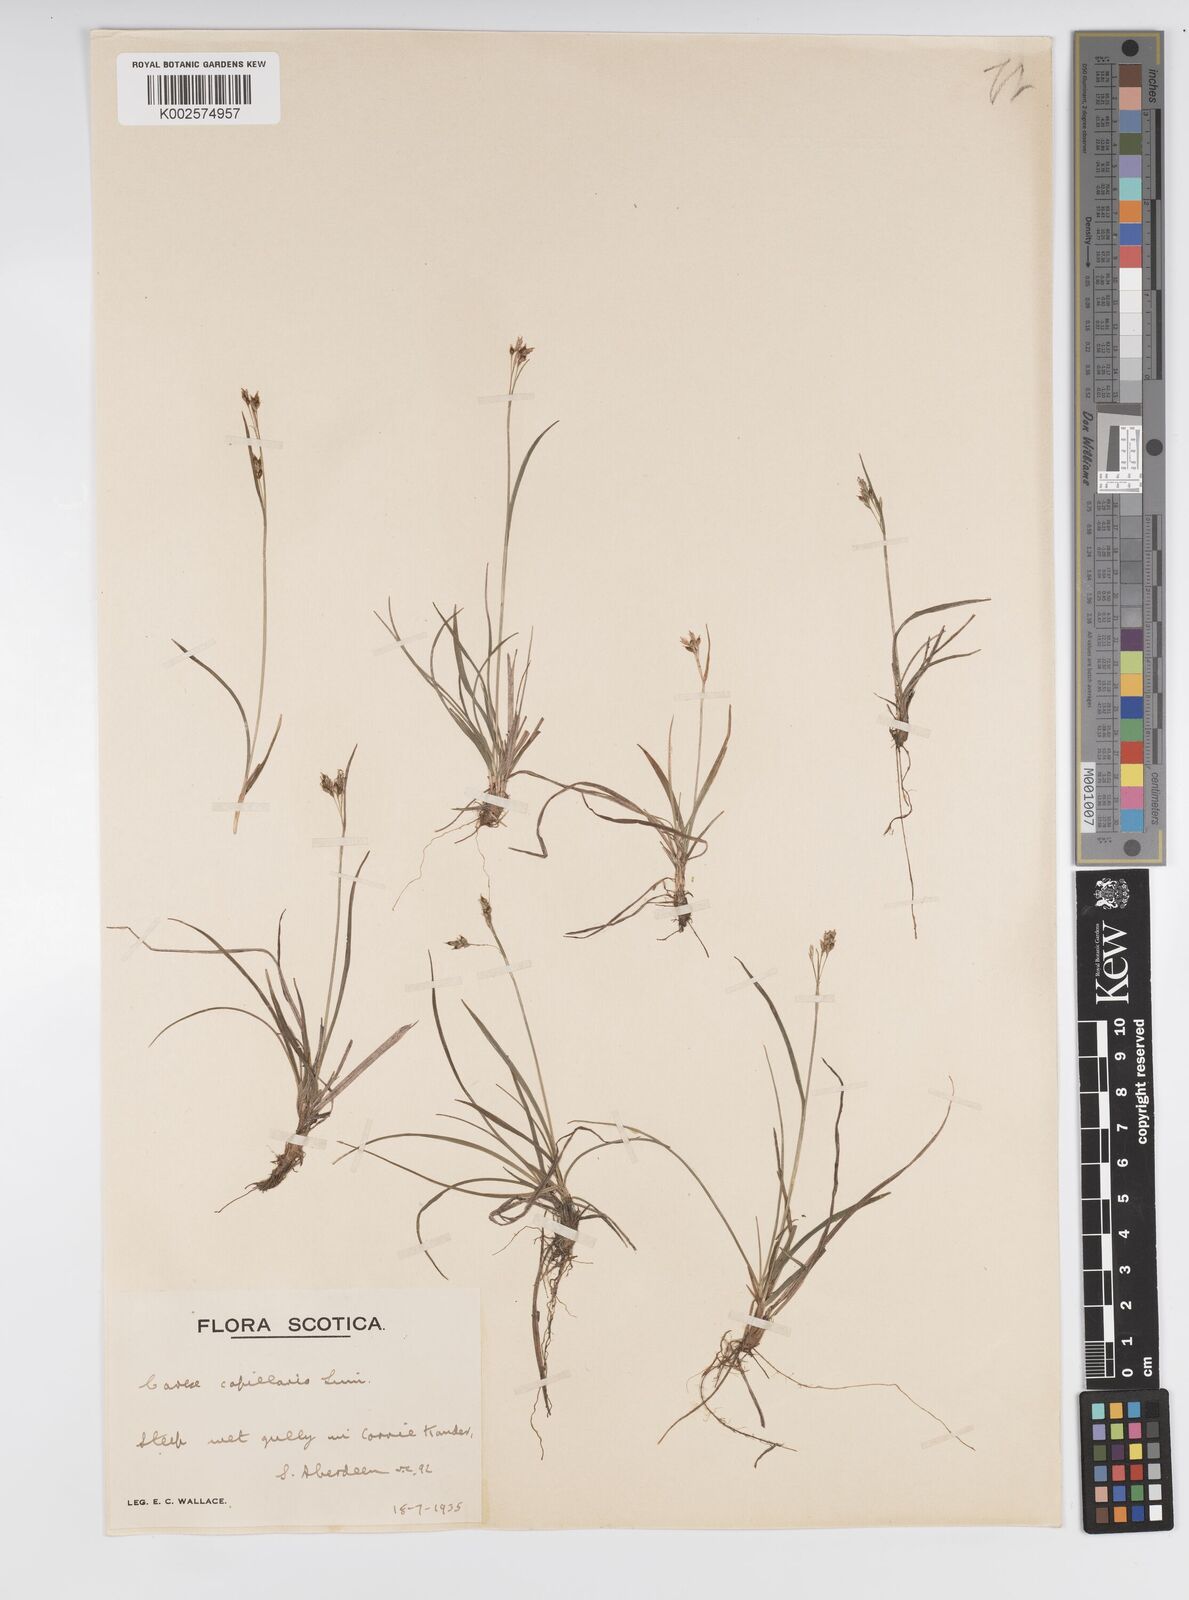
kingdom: Plantae
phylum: Tracheophyta
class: Liliopsida
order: Poales
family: Cyperaceae
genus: Carex
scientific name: Carex capillaris
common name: Hair sedge
